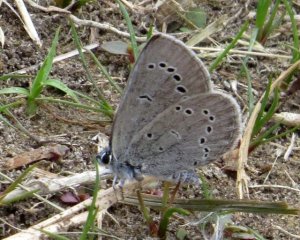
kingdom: Animalia
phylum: Arthropoda
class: Insecta
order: Lepidoptera
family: Lycaenidae
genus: Glaucopsyche
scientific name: Glaucopsyche lygdamus
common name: Silvery Blue
